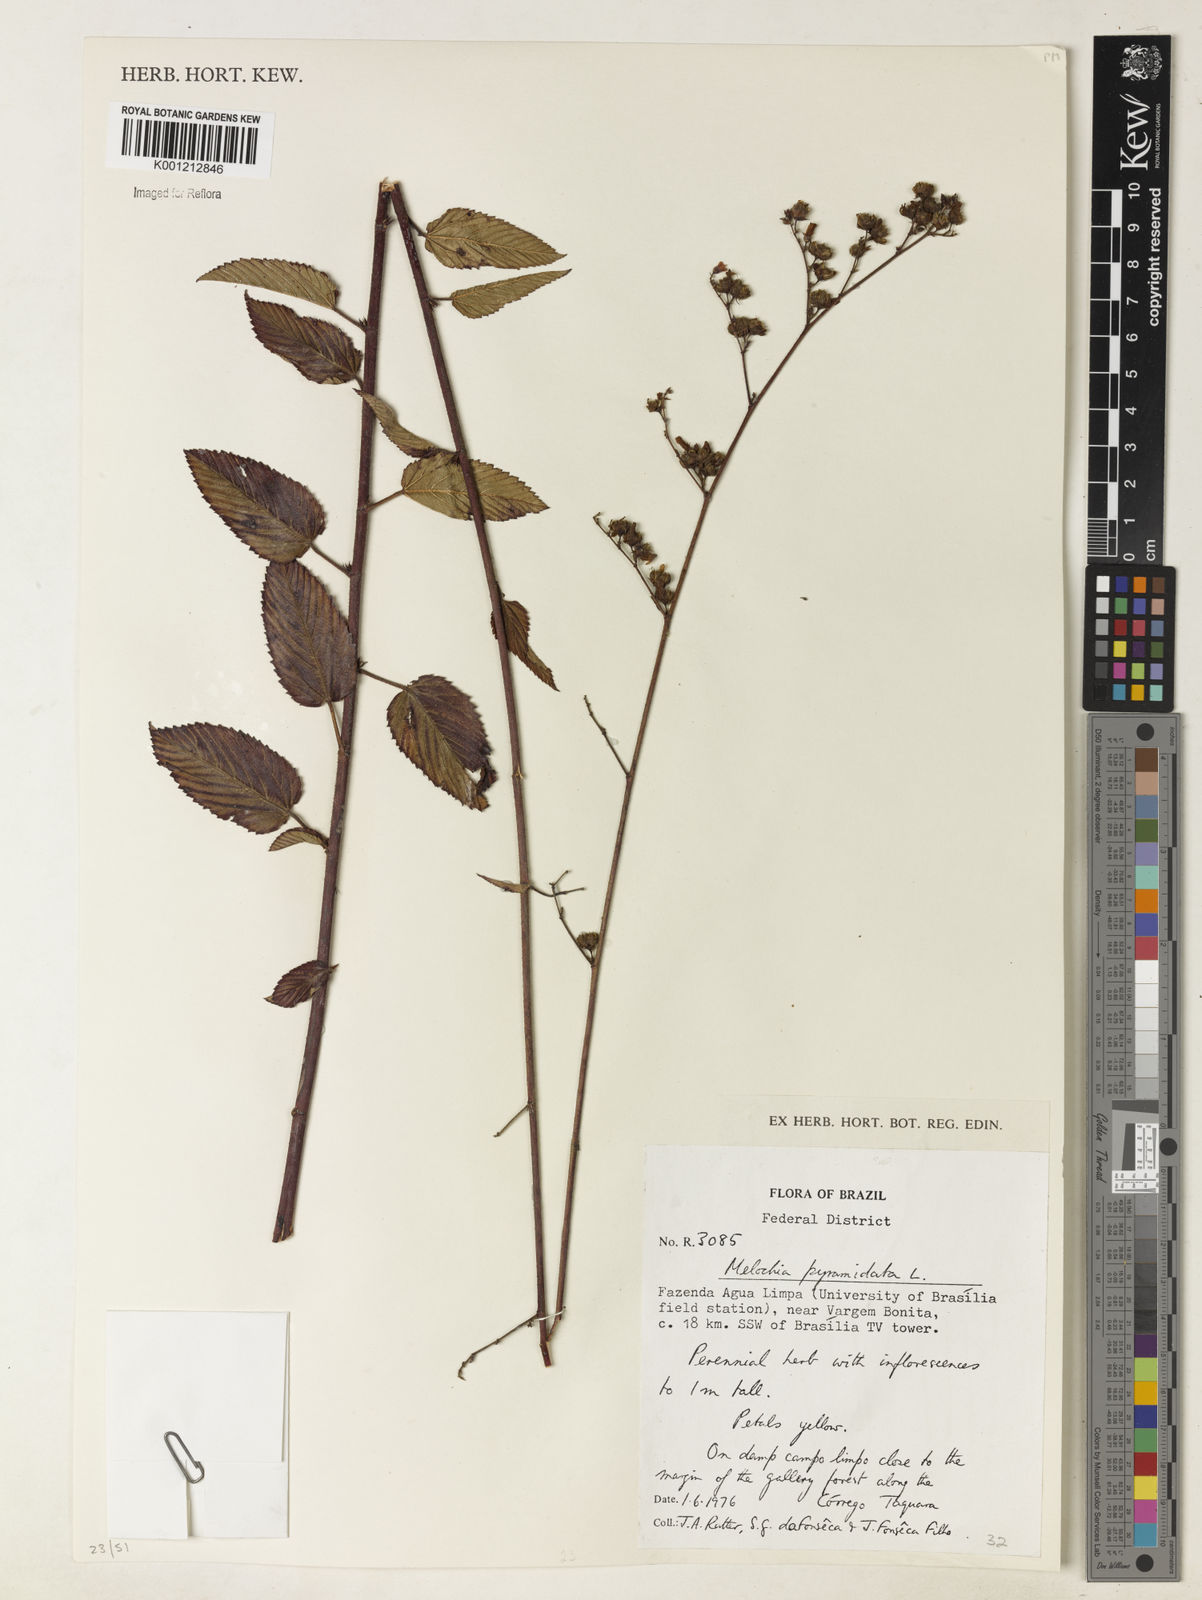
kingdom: Plantae
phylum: Tracheophyta
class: Magnoliopsida
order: Malvales
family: Malvaceae
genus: Melochia
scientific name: Melochia pyramidata
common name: Pyramidflower
